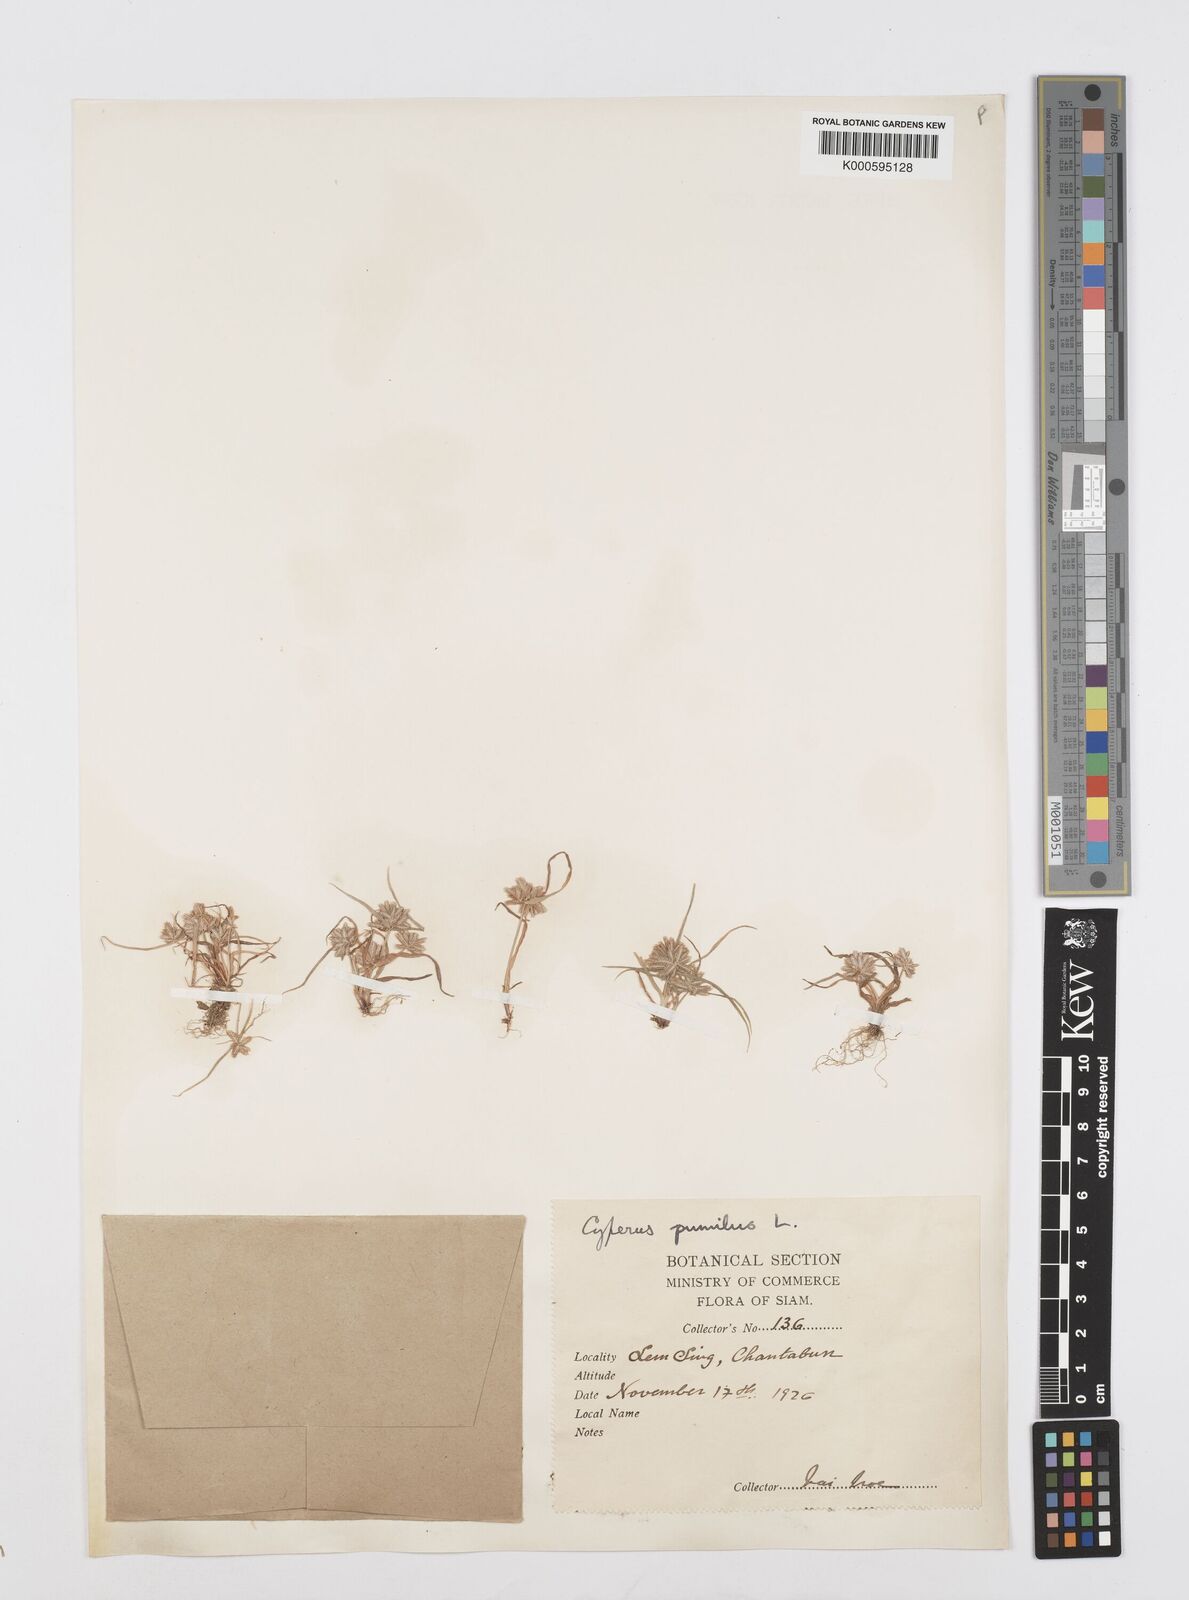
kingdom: Plantae
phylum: Tracheophyta
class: Liliopsida
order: Poales
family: Cyperaceae
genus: Cyperus
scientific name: Cyperus pumilus
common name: Low flatsedge
